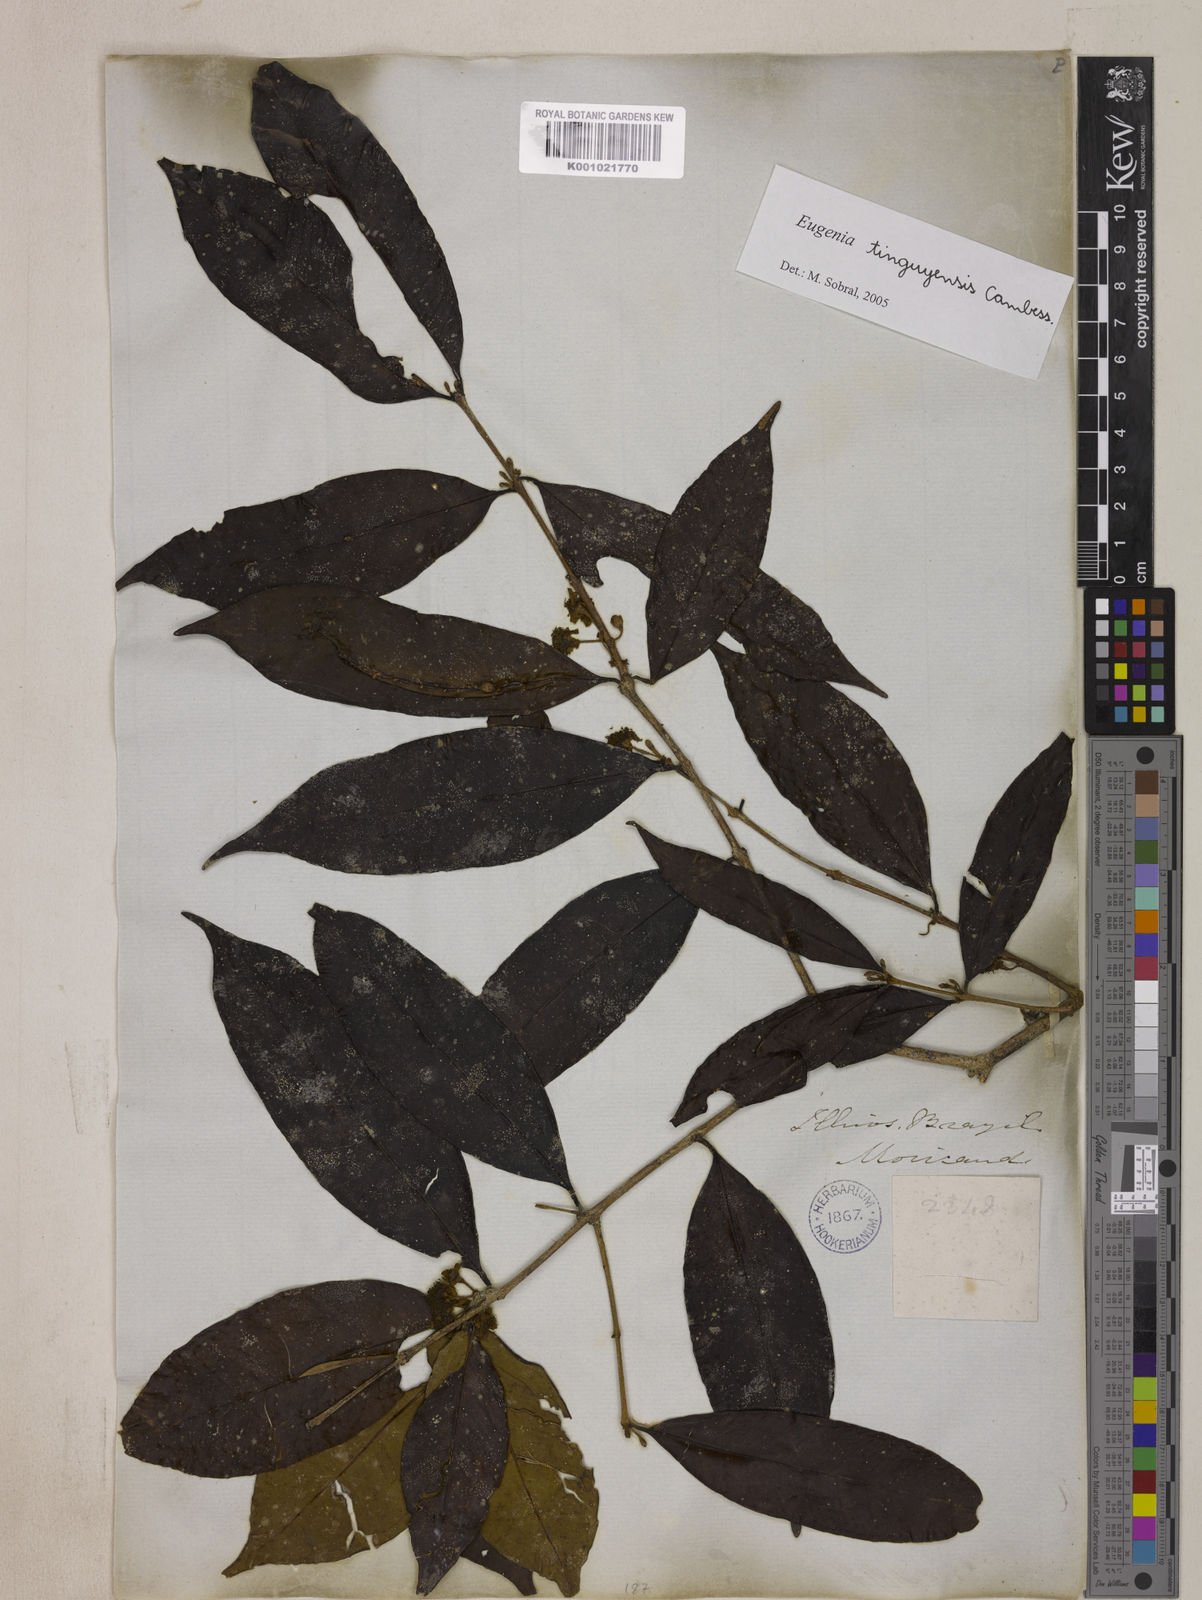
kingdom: Plantae
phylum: Tracheophyta
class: Magnoliopsida
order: Myrtales
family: Myrtaceae
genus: Eugenia
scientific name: Eugenia pisiformis
